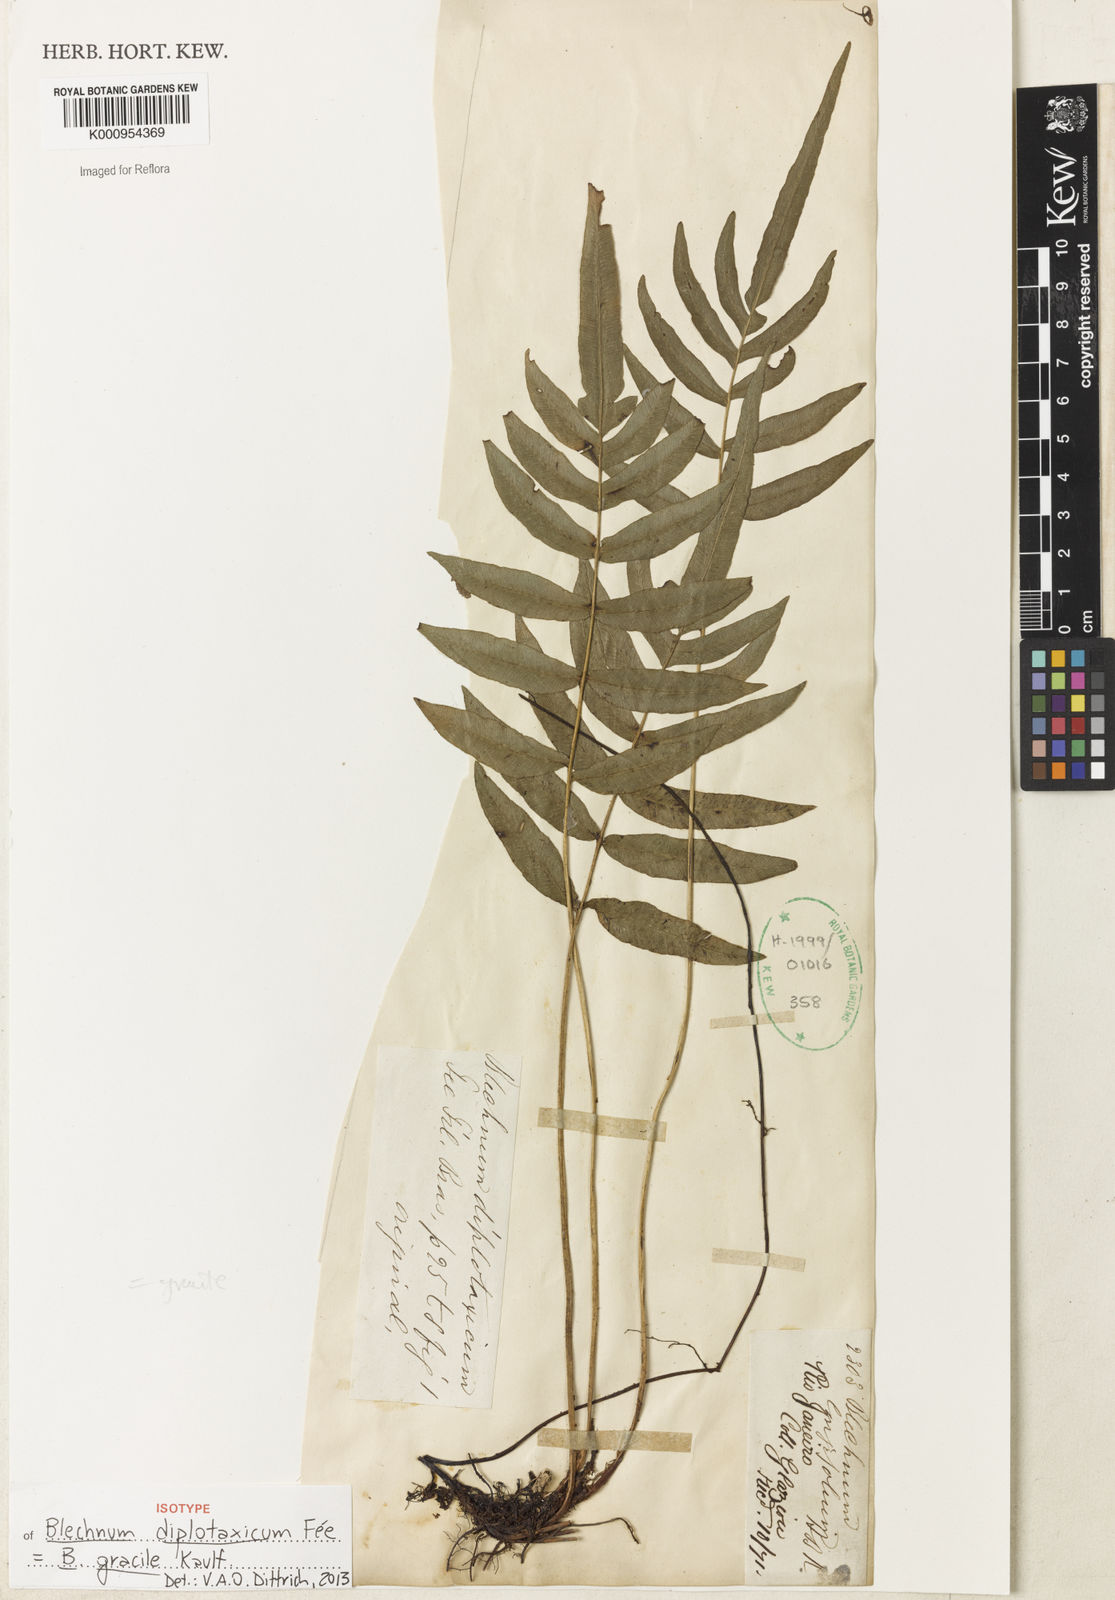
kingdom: Plantae
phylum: Tracheophyta
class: Polypodiopsida
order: Polypodiales
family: Blechnaceae
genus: Blechnum
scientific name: Blechnum gracile
